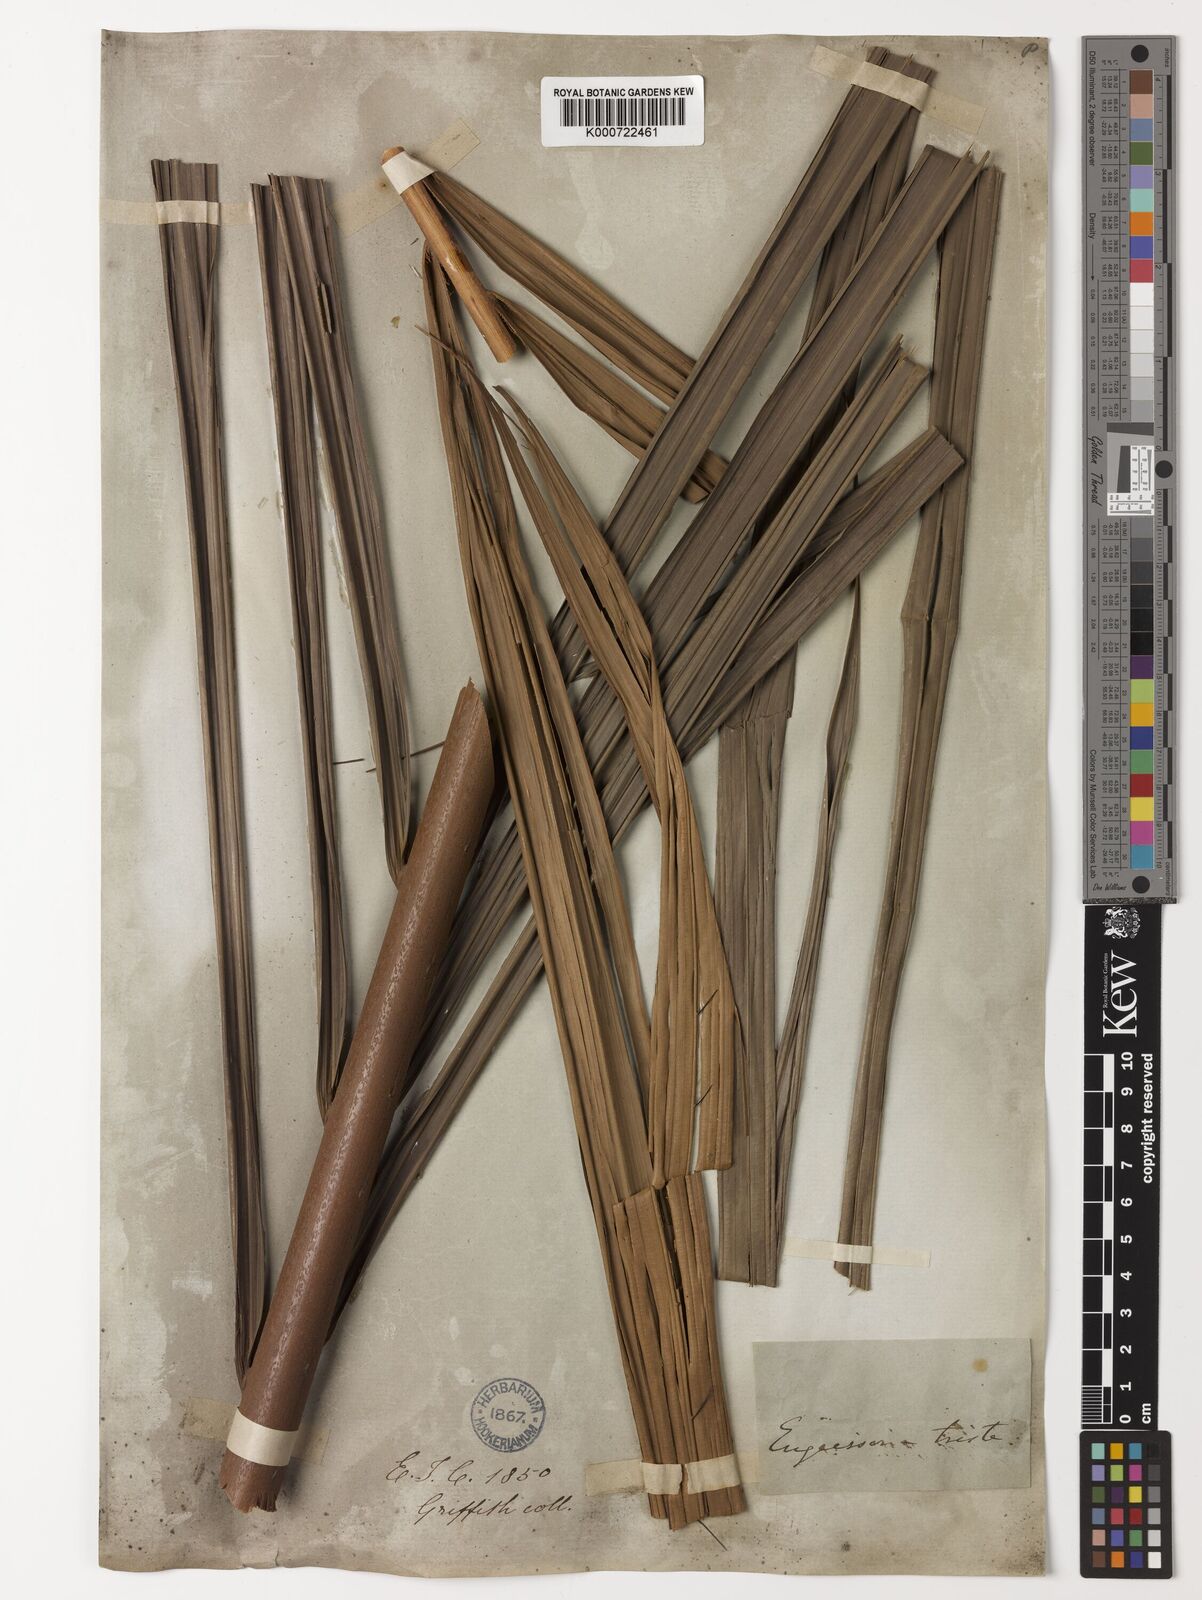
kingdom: Plantae
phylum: Tracheophyta
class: Liliopsida
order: Arecales
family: Arecaceae
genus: Eugeissona
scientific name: Eugeissona tristis
